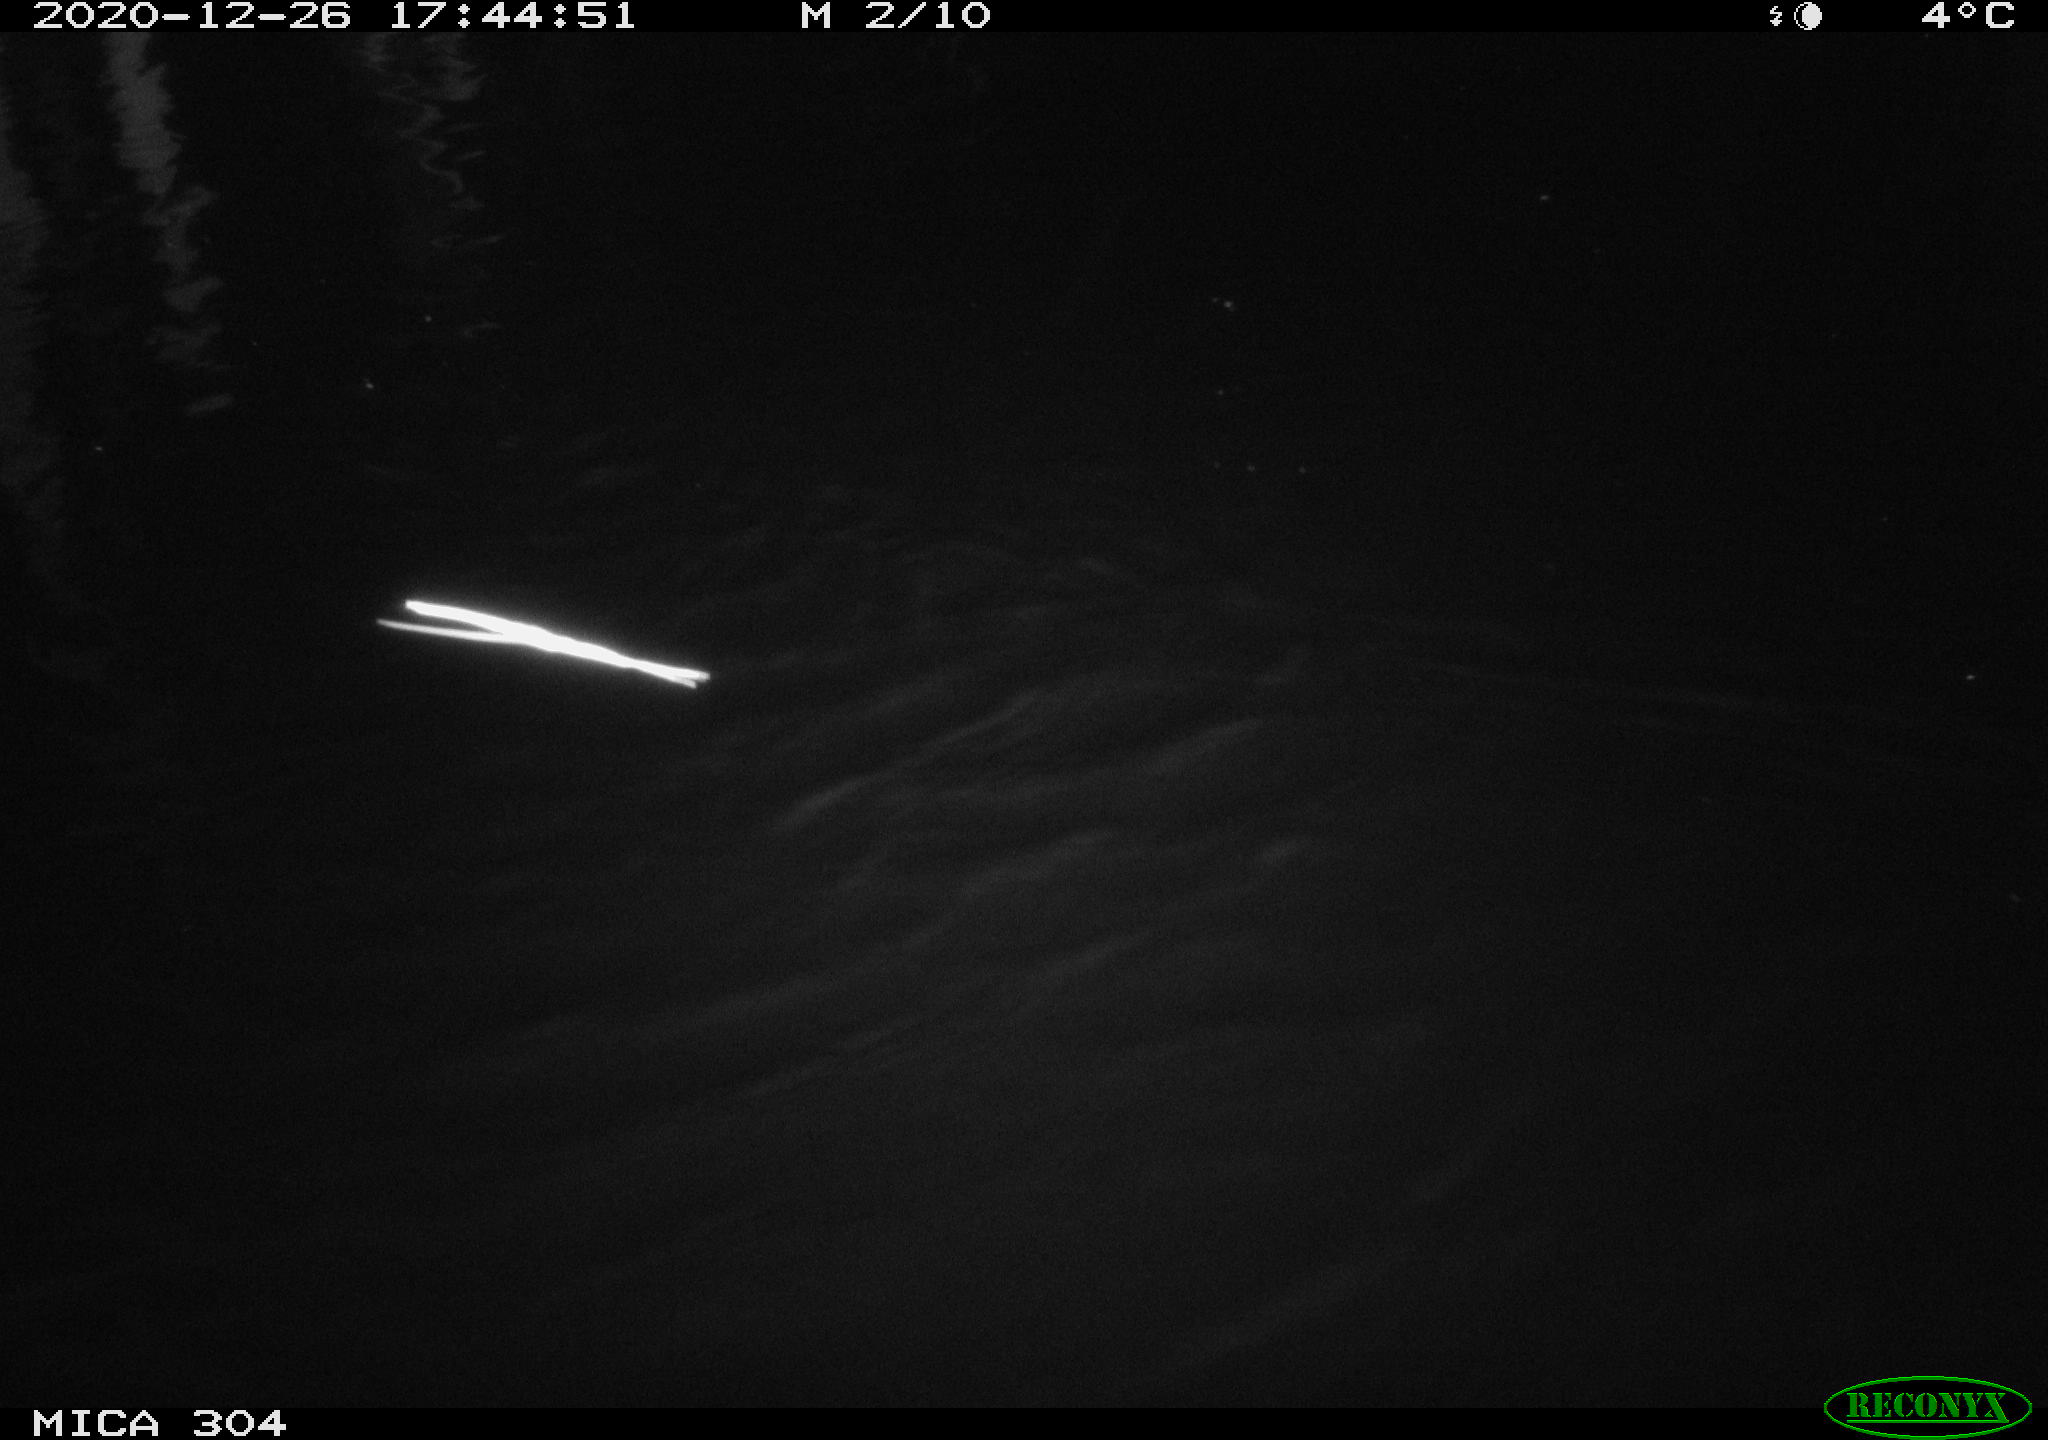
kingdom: Animalia
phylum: Chordata
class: Mammalia
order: Rodentia
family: Muridae
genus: Rattus
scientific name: Rattus norvegicus
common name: Brown rat
